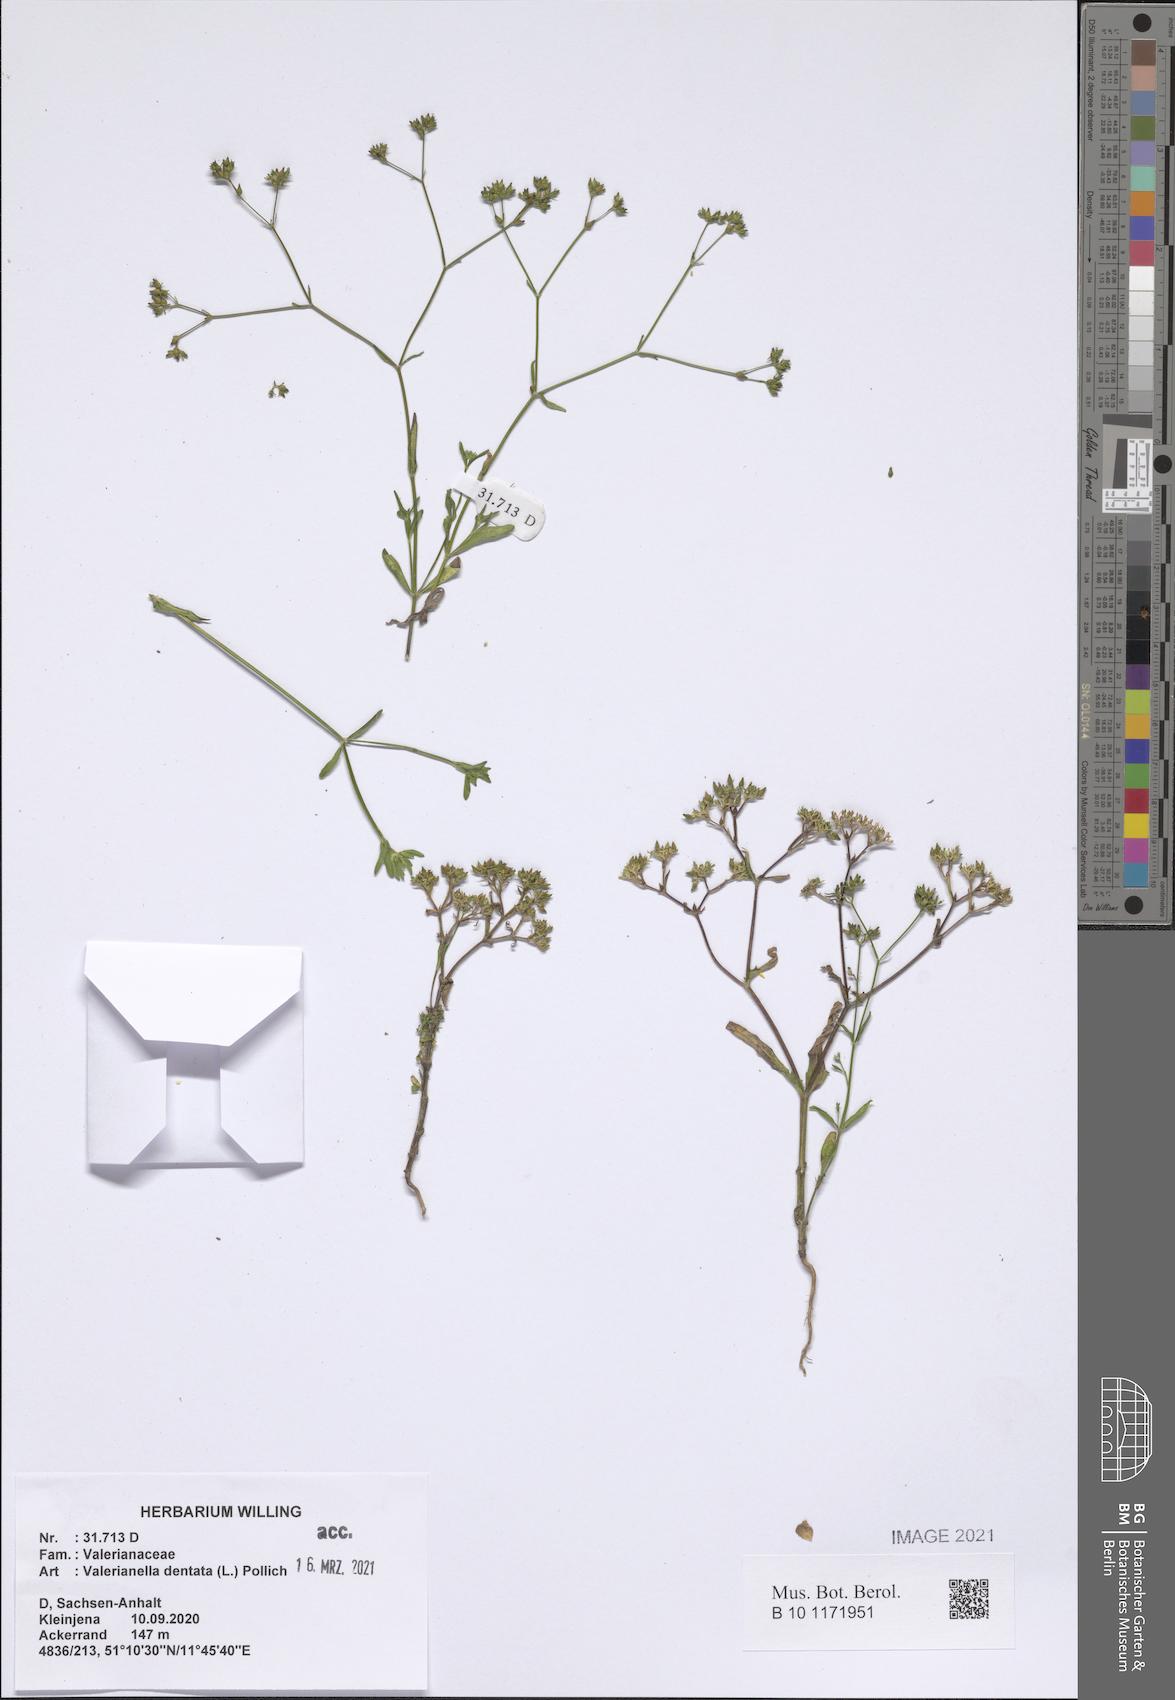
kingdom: Plantae
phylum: Tracheophyta
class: Magnoliopsida
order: Dipsacales
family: Caprifoliaceae
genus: Valerianella
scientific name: Valerianella dentata
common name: Narrow-fruited cornsalad
